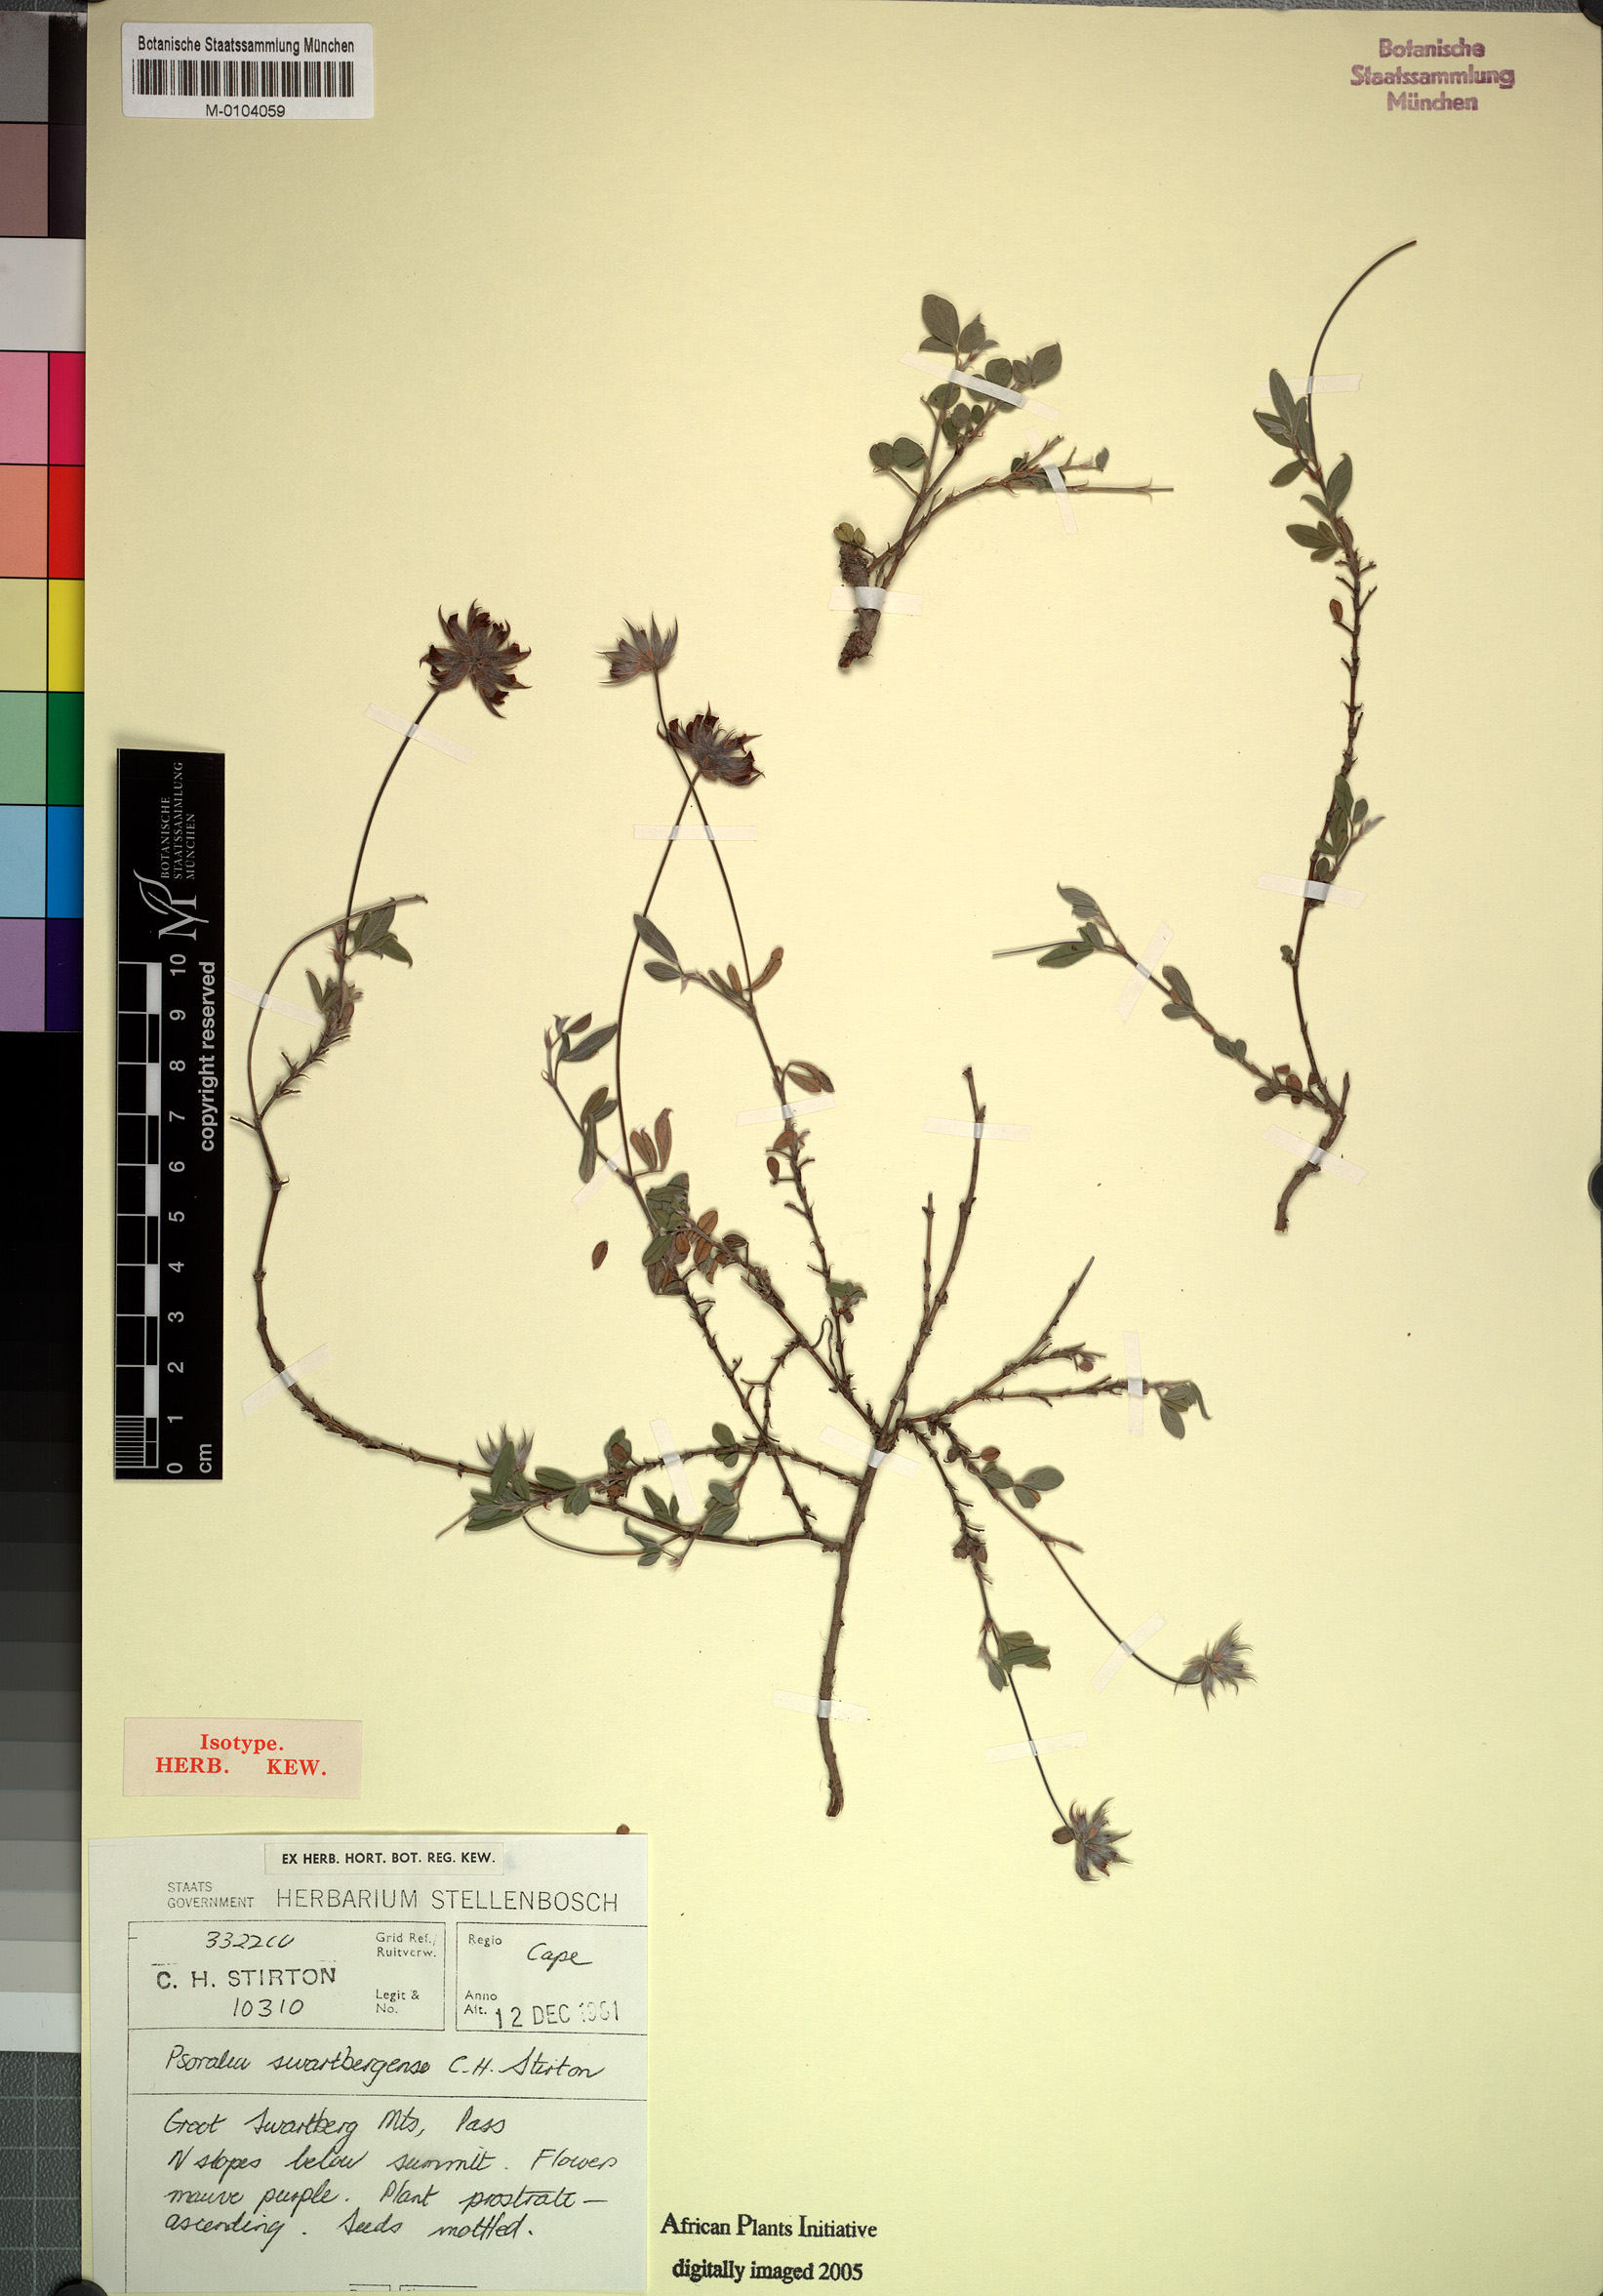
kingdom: Plantae
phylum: Tracheophyta
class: Magnoliopsida
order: Fabales
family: Fabaceae
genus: Psoralea
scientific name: Psoralea swartbergensis
